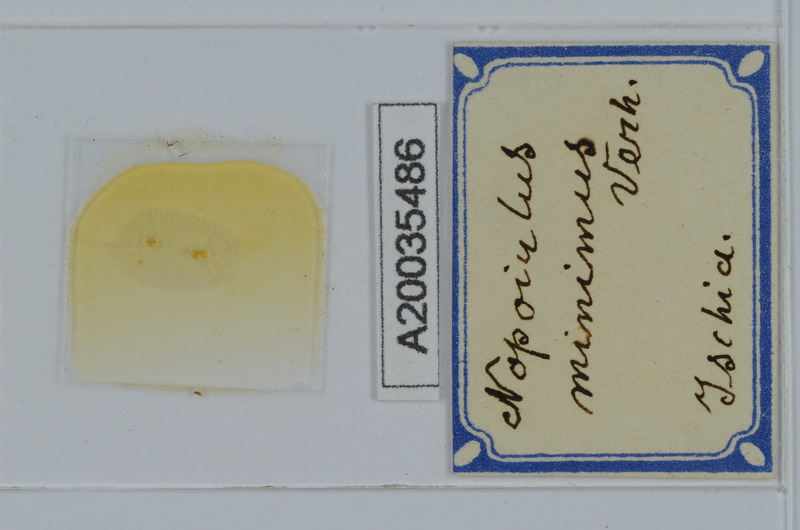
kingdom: Animalia
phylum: Arthropoda
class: Diplopoda
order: Julida
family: Blaniulidae
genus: Choneiulus
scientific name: Choneiulus subterraneus
